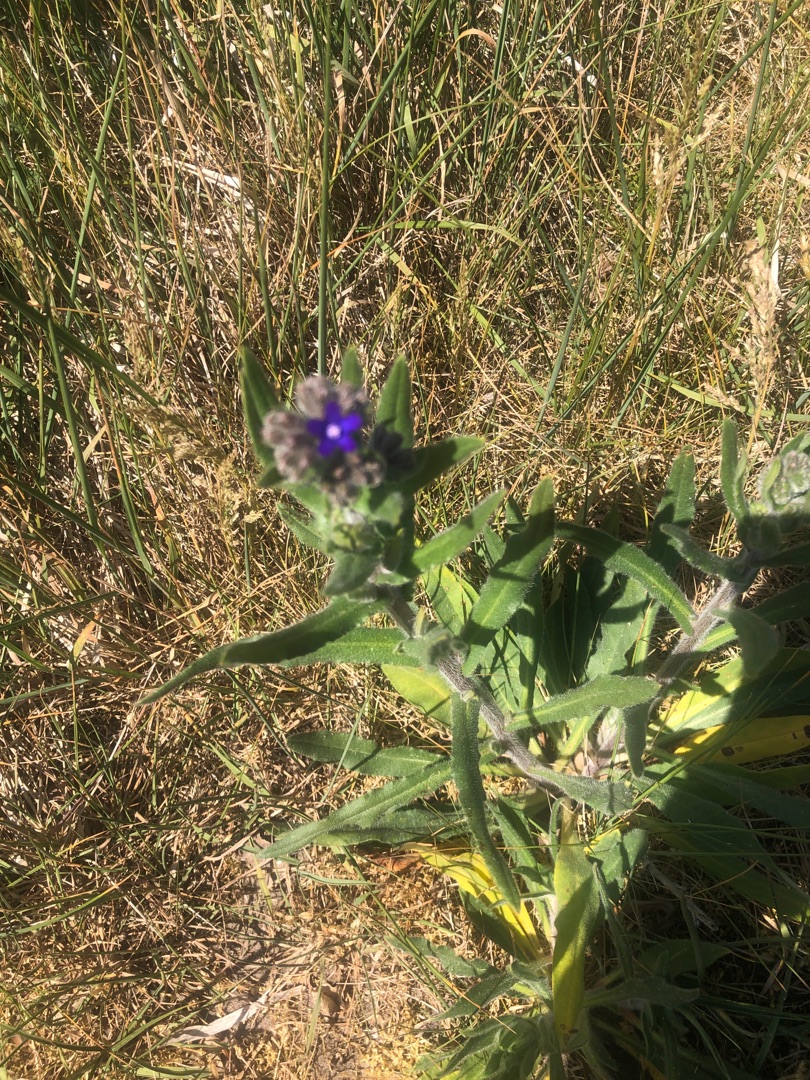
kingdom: Plantae
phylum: Tracheophyta
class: Magnoliopsida
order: Boraginales
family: Boraginaceae
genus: Anchusa
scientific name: Anchusa officinalis
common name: Læge-oksetunge
